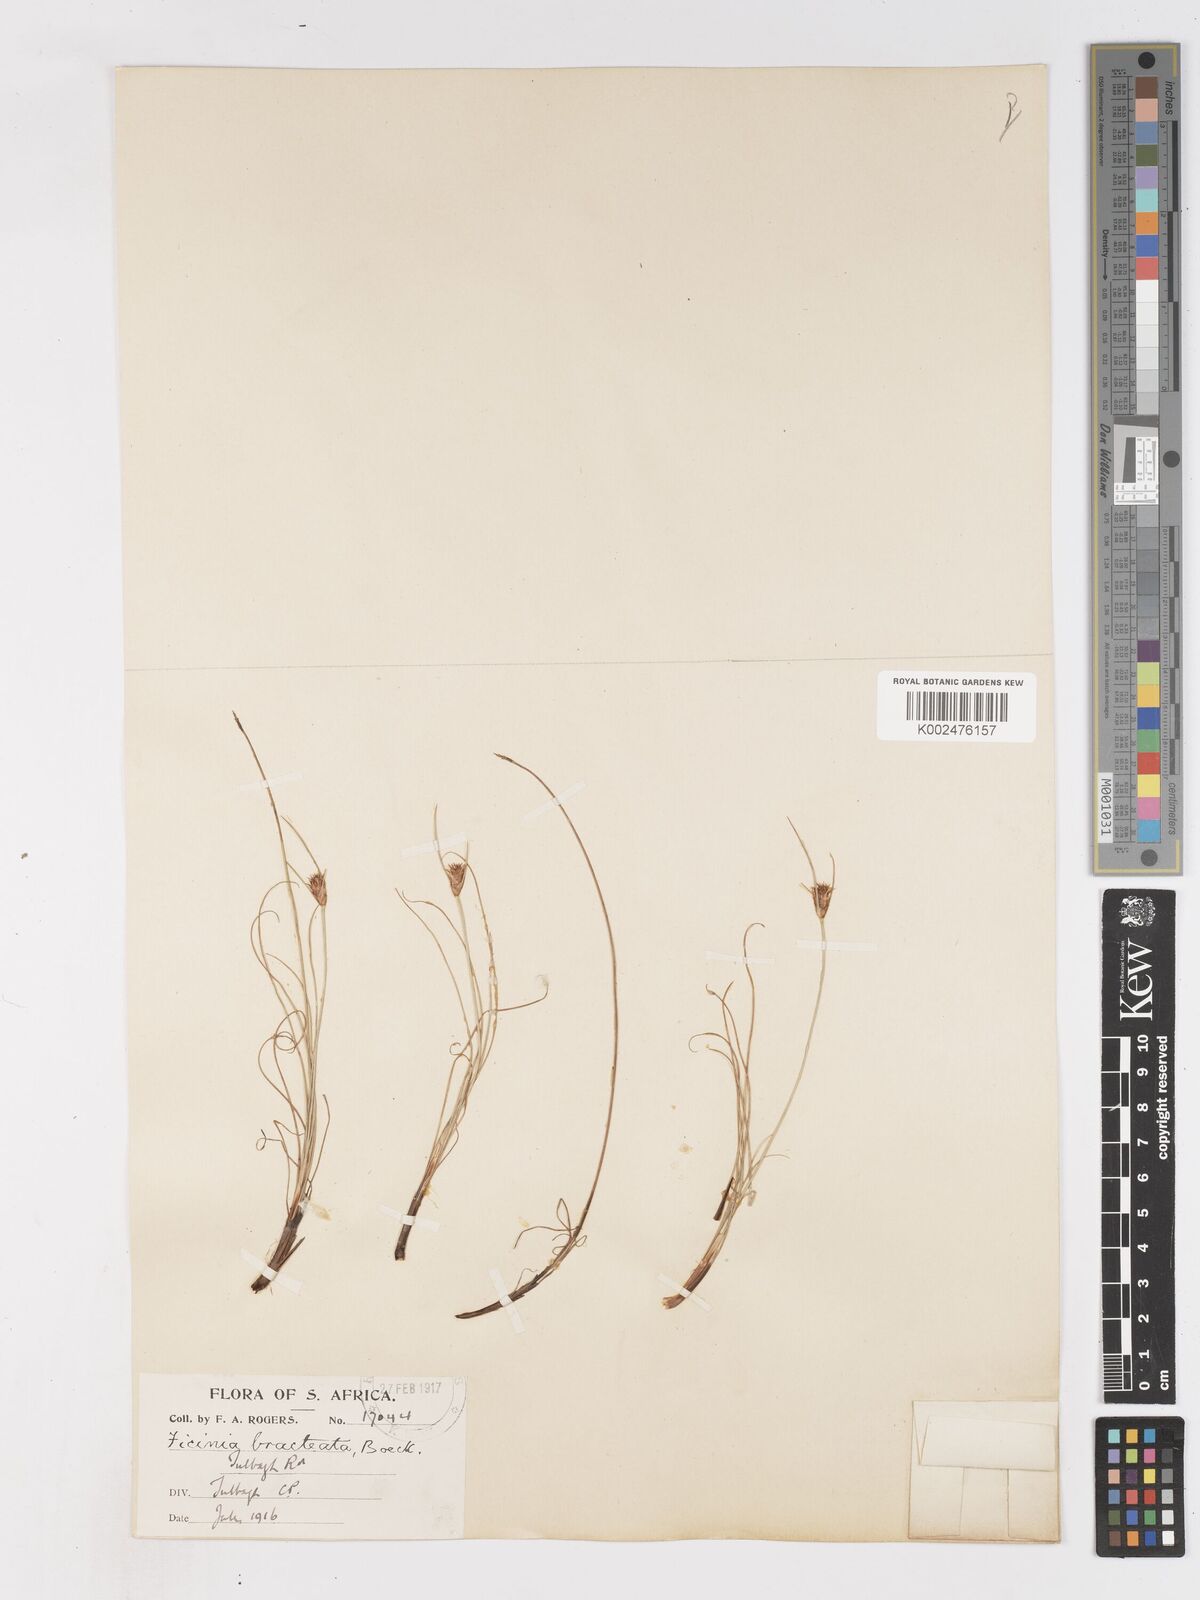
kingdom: Plantae
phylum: Tracheophyta
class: Liliopsida
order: Poales
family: Cyperaceae
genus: Ficinia
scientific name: Ficinia nigrescens
